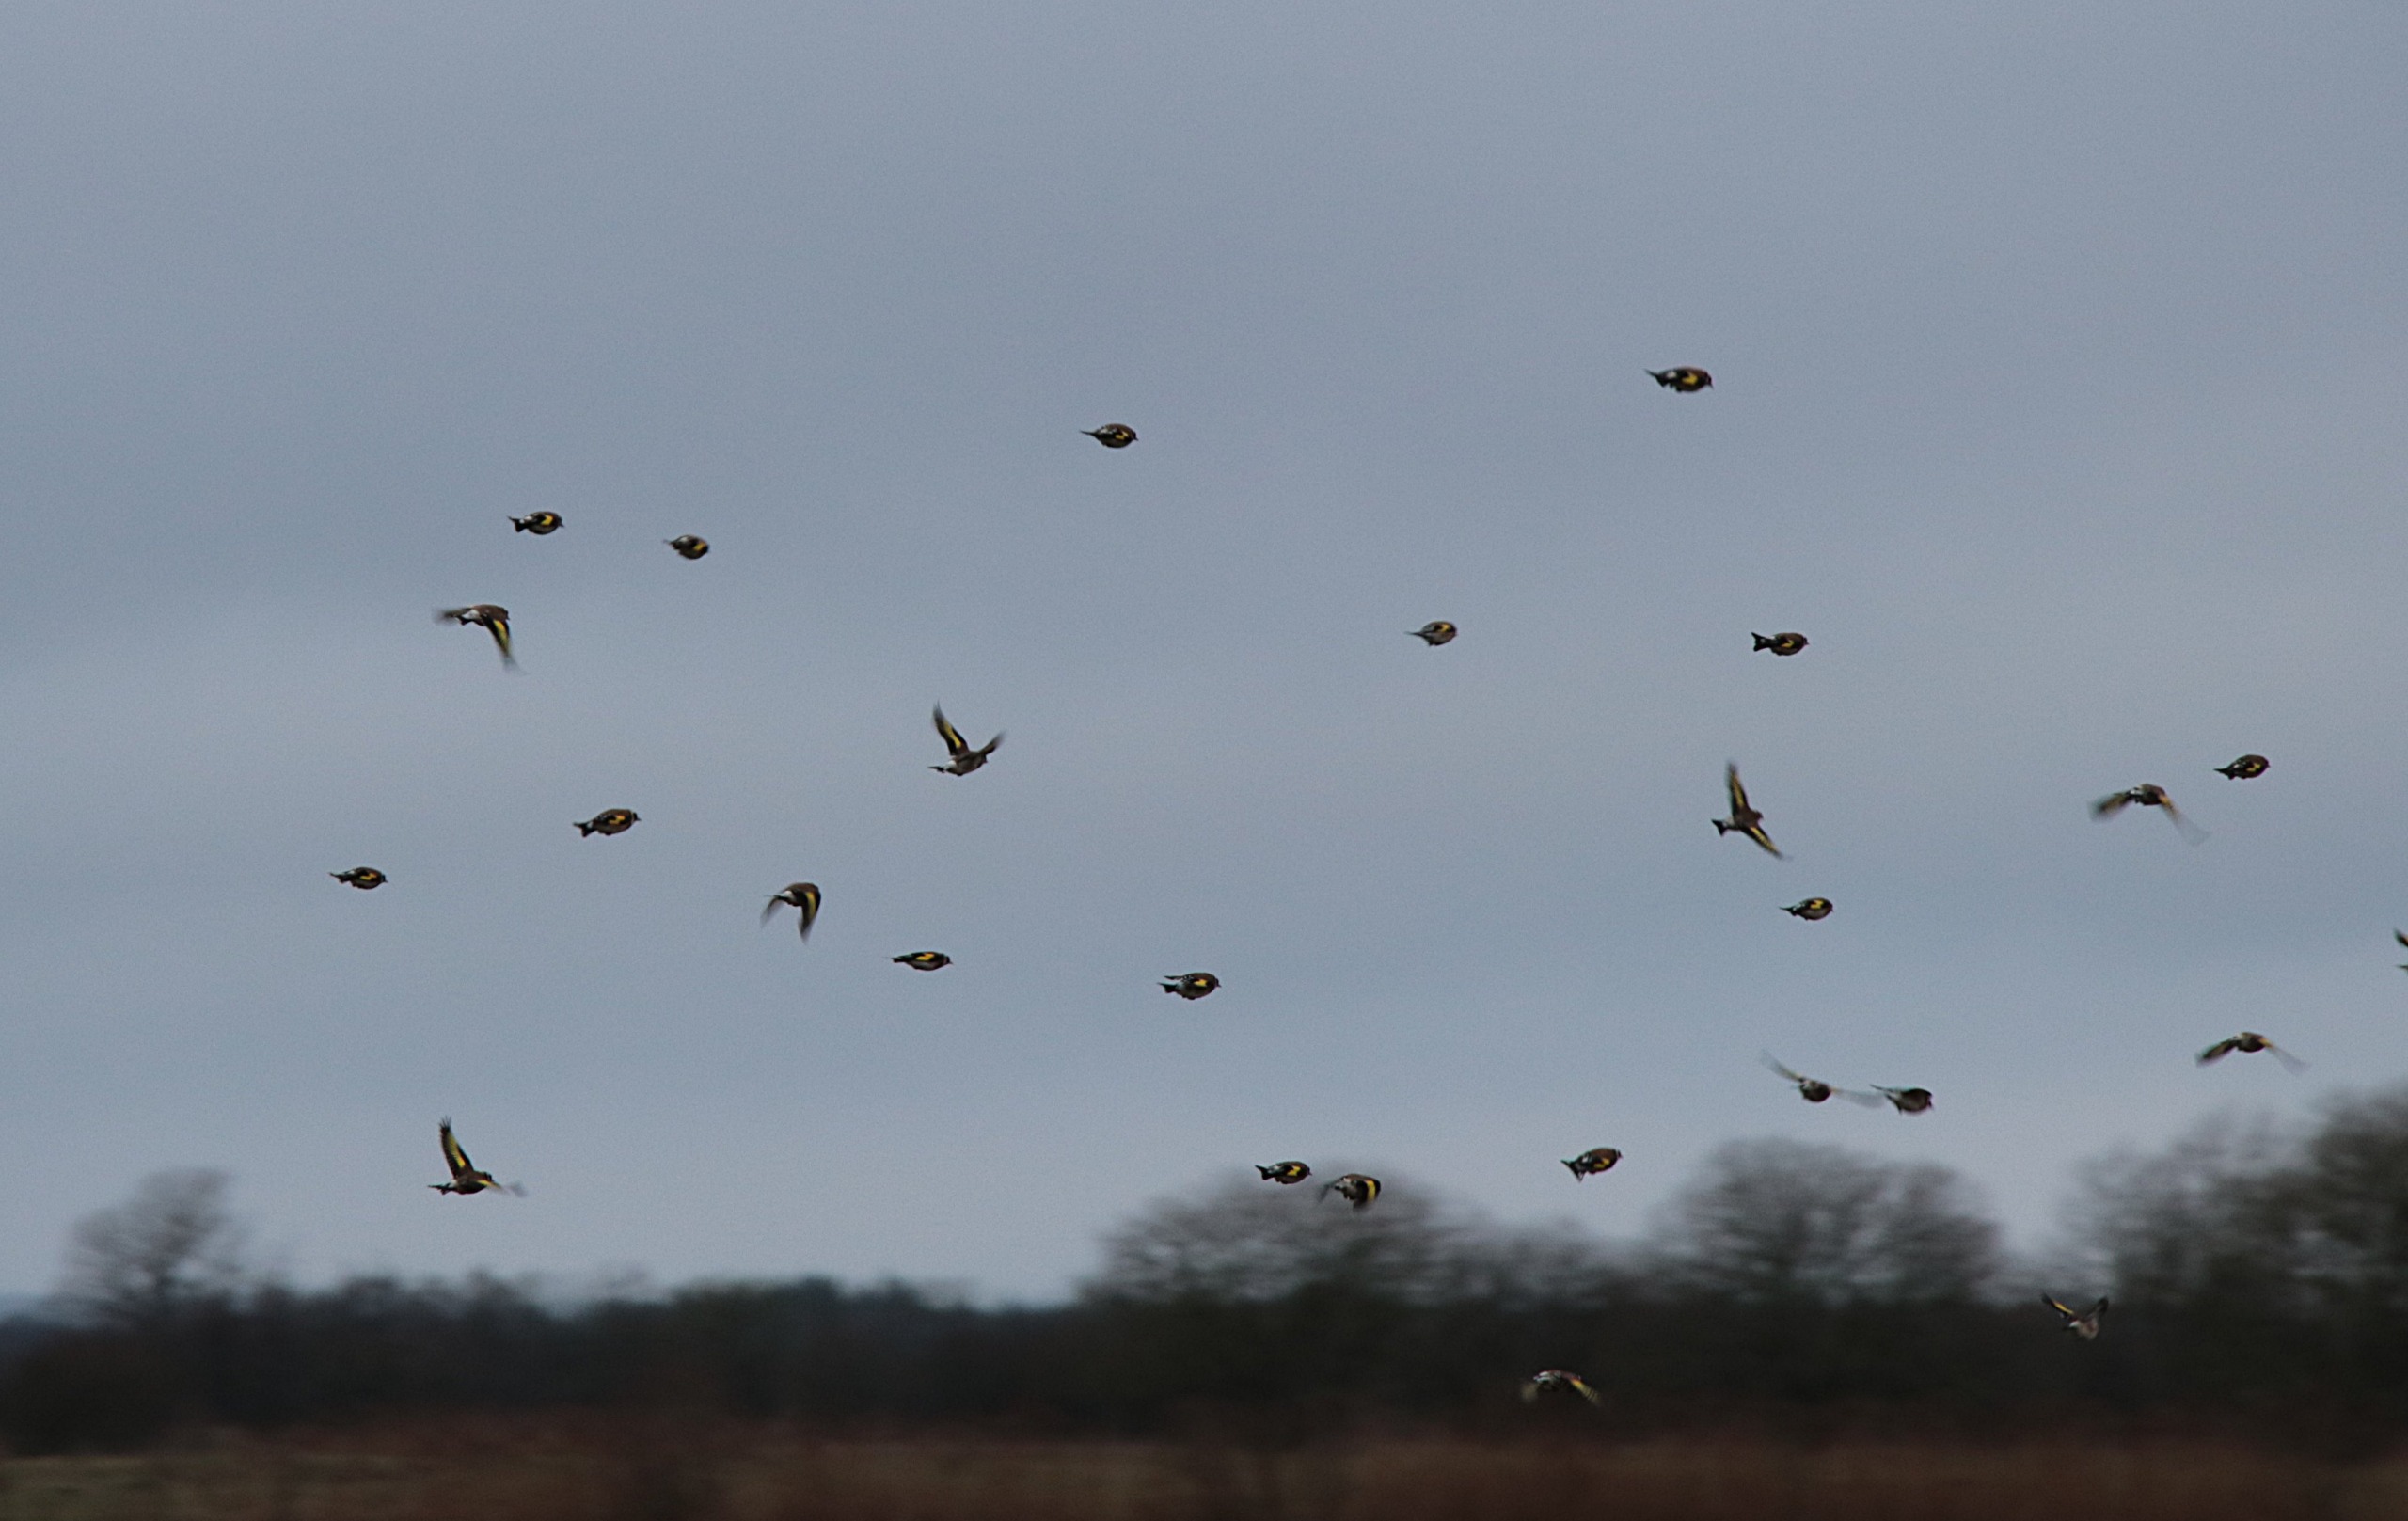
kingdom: Animalia
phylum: Chordata
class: Aves
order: Passeriformes
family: Fringillidae
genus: Carduelis
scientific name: Carduelis carduelis
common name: Stillits
